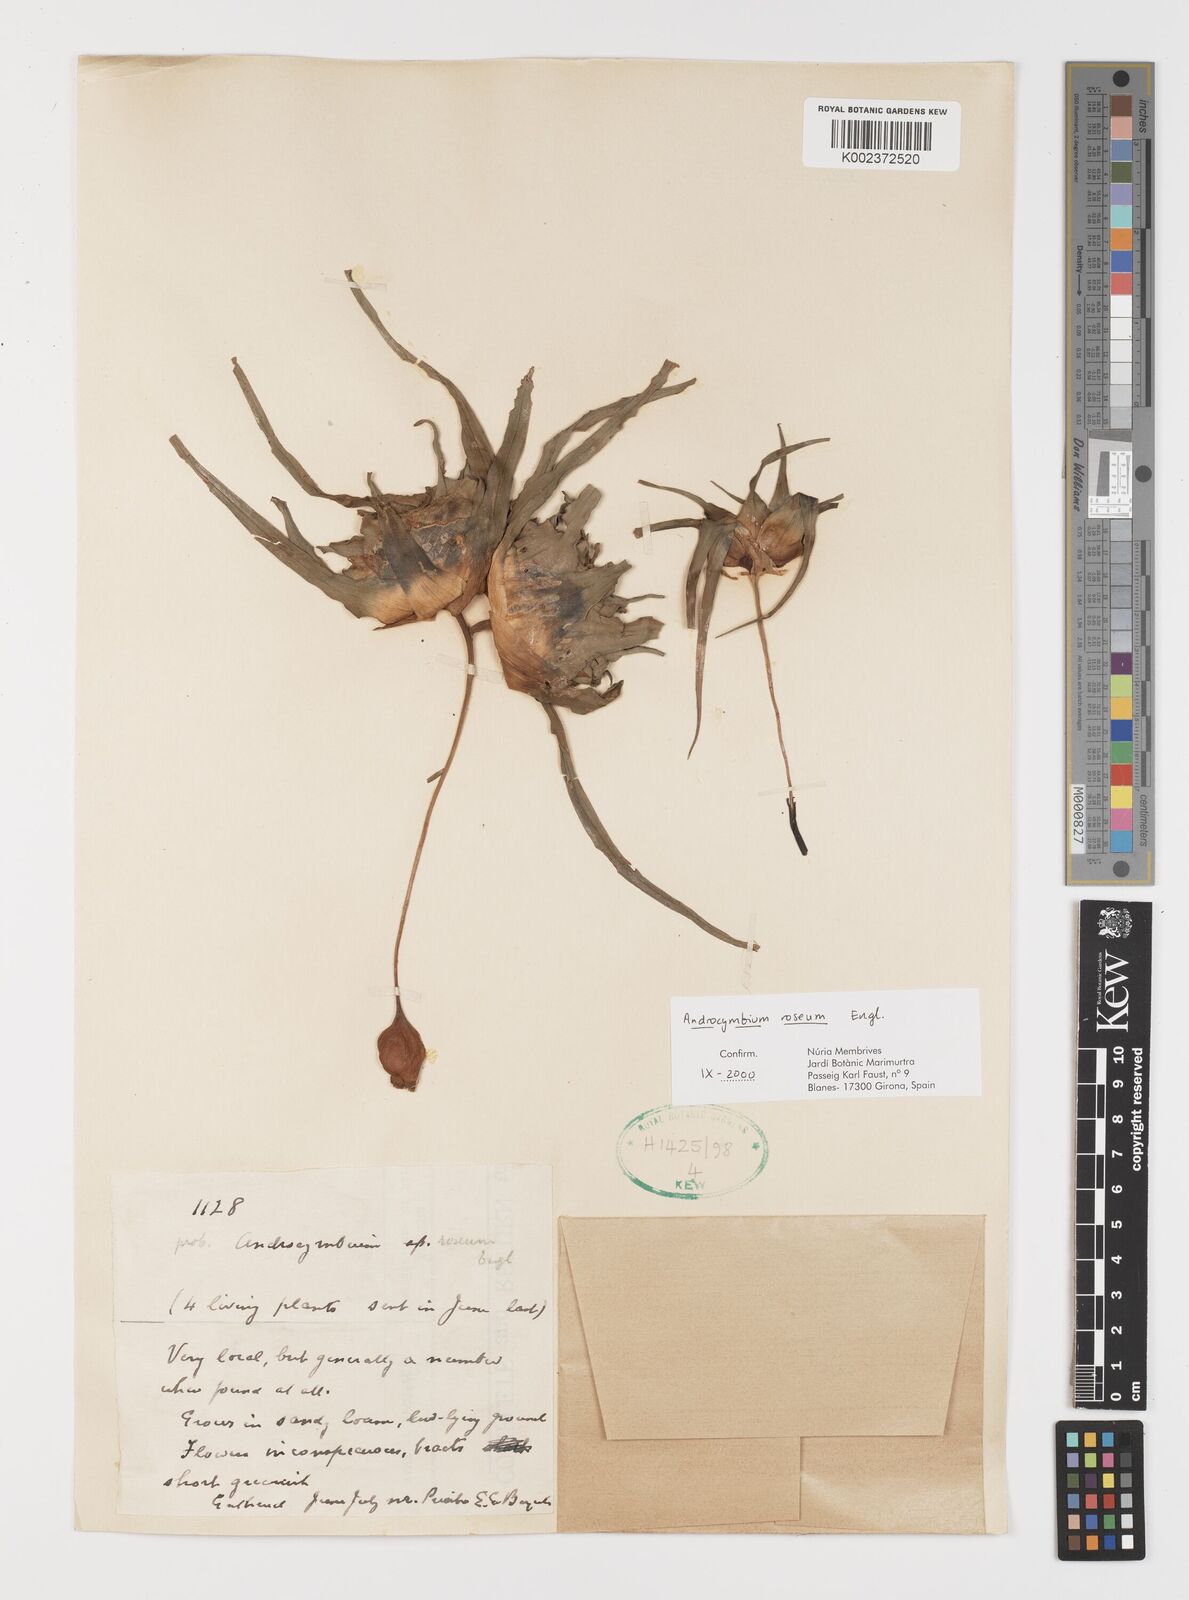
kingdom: Plantae
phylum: Tracheophyta
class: Liliopsida
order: Liliales
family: Colchicaceae
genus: Colchicum
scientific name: Colchicum roseum
